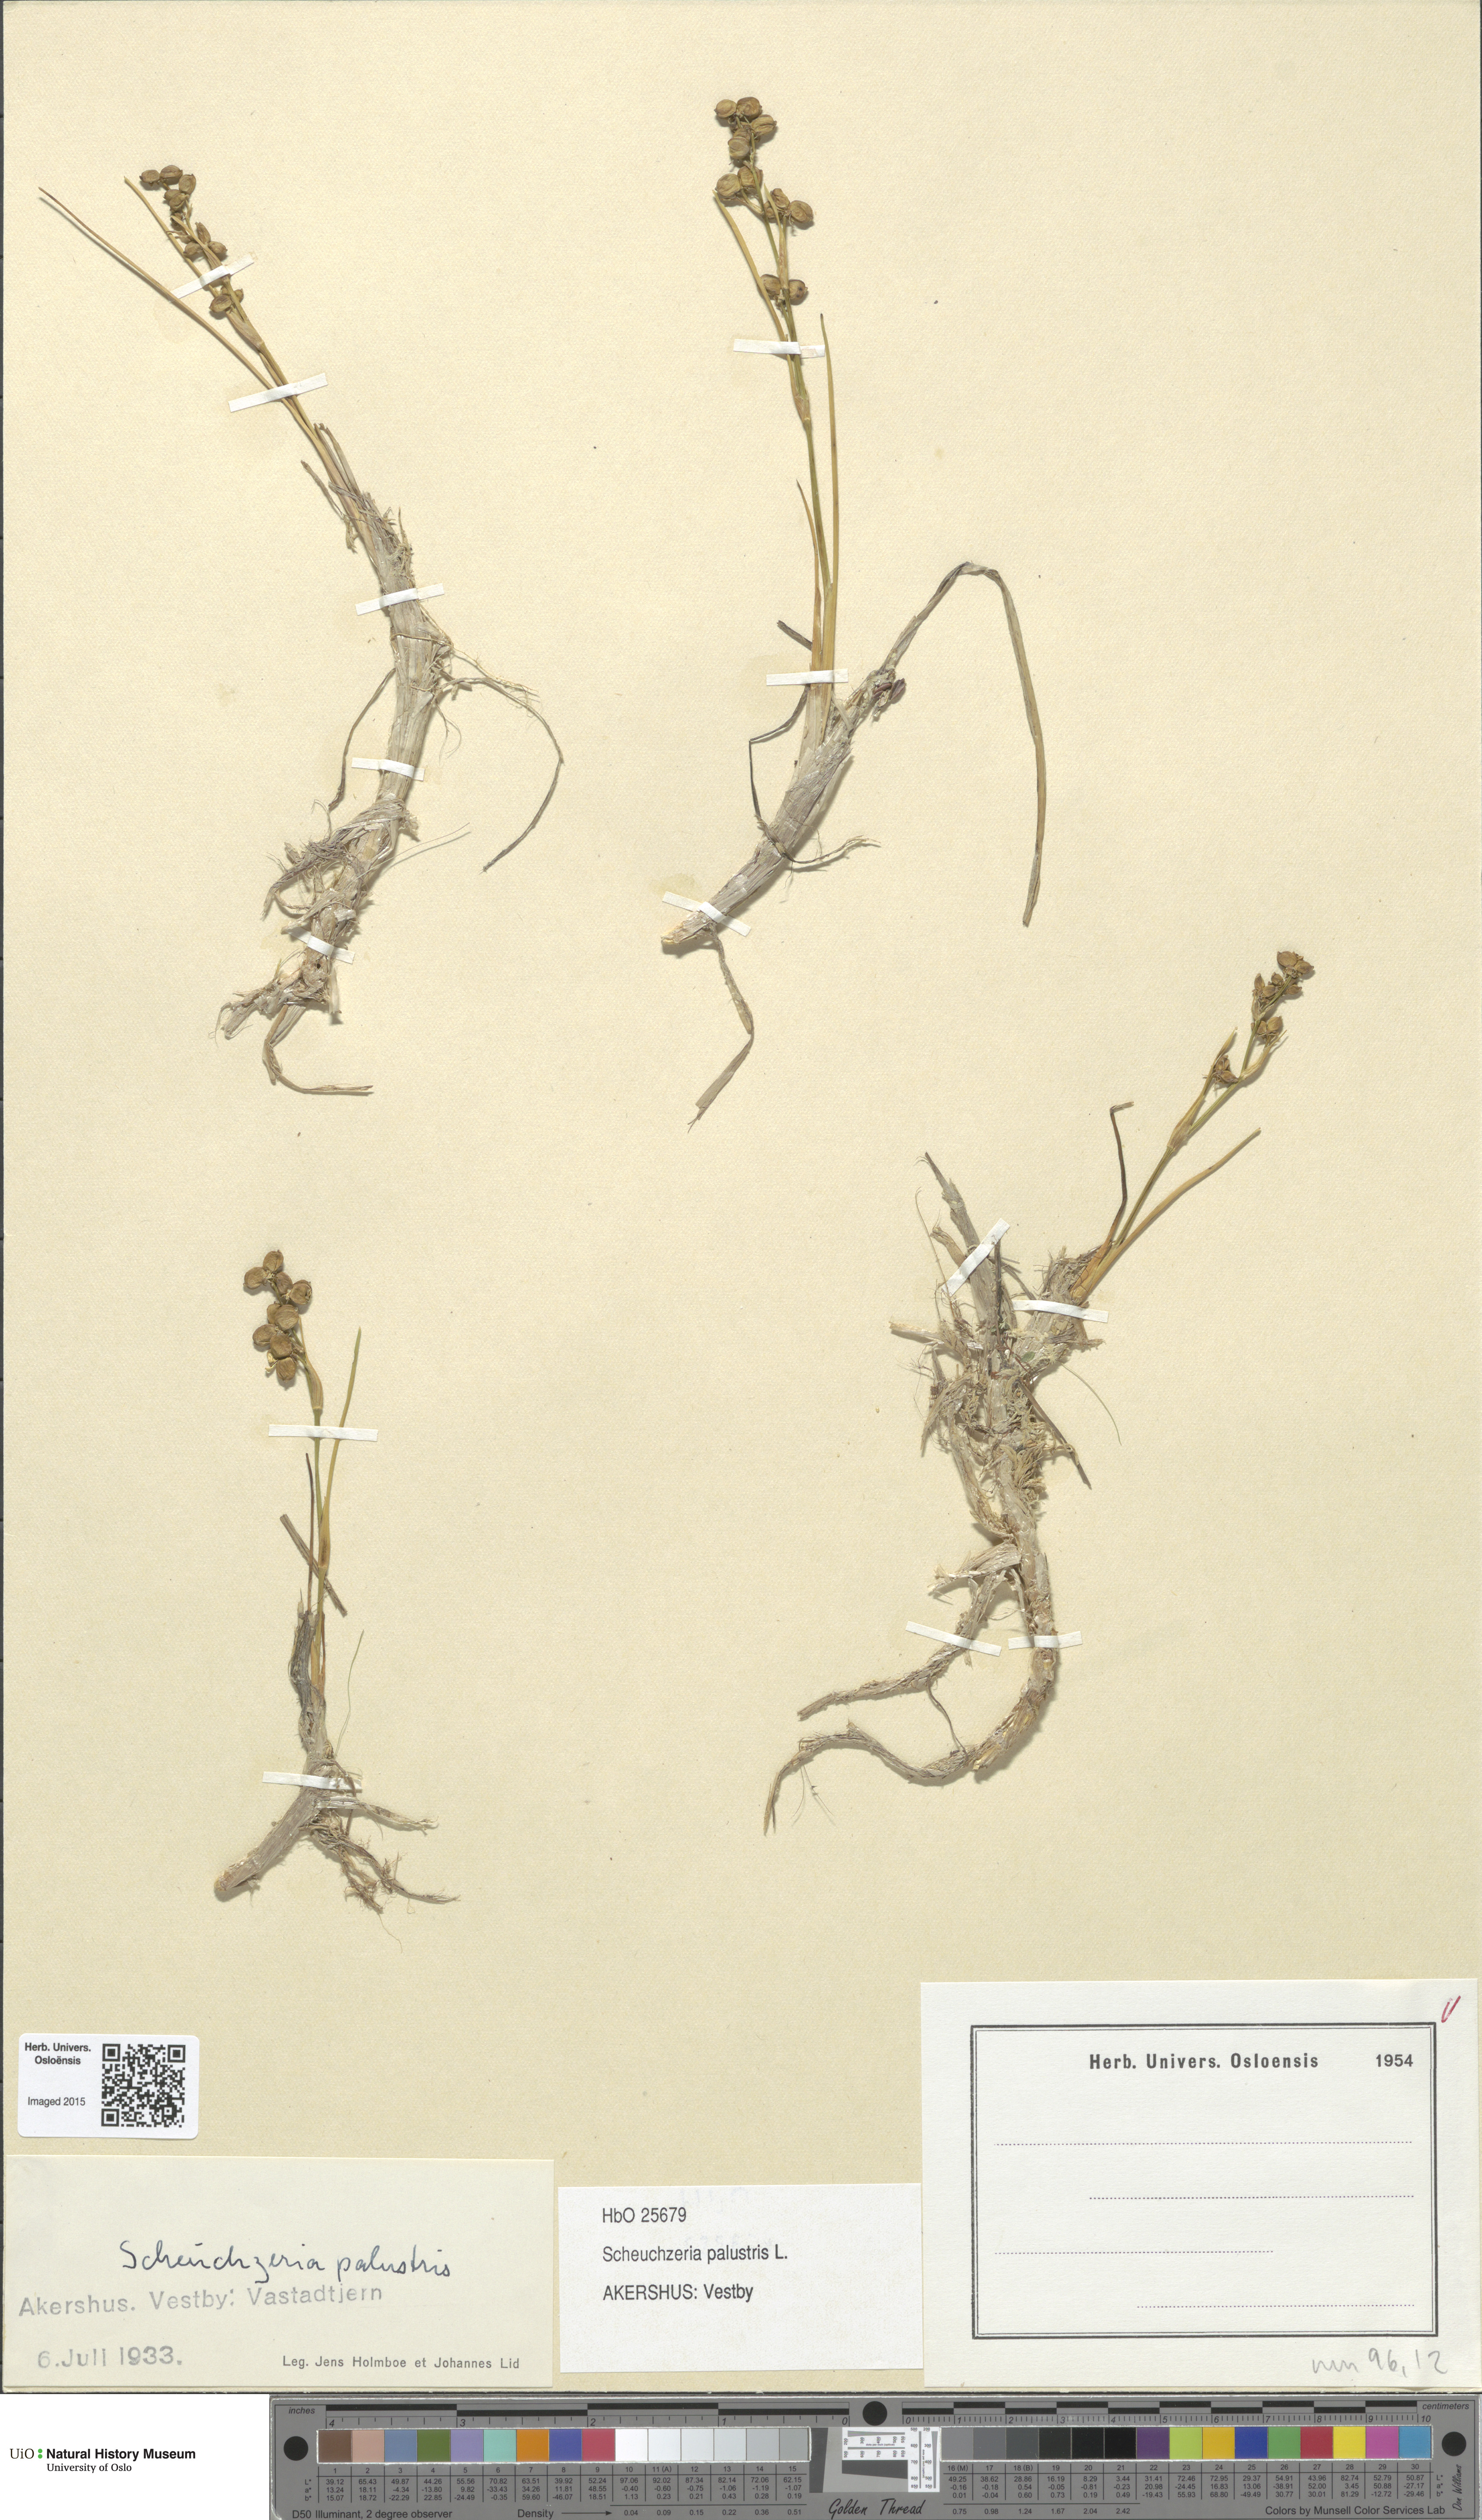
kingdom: Plantae
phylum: Tracheophyta
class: Liliopsida
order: Alismatales
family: Scheuchzeriaceae
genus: Scheuchzeria
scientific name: Scheuchzeria palustris
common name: Rannoch-rush
